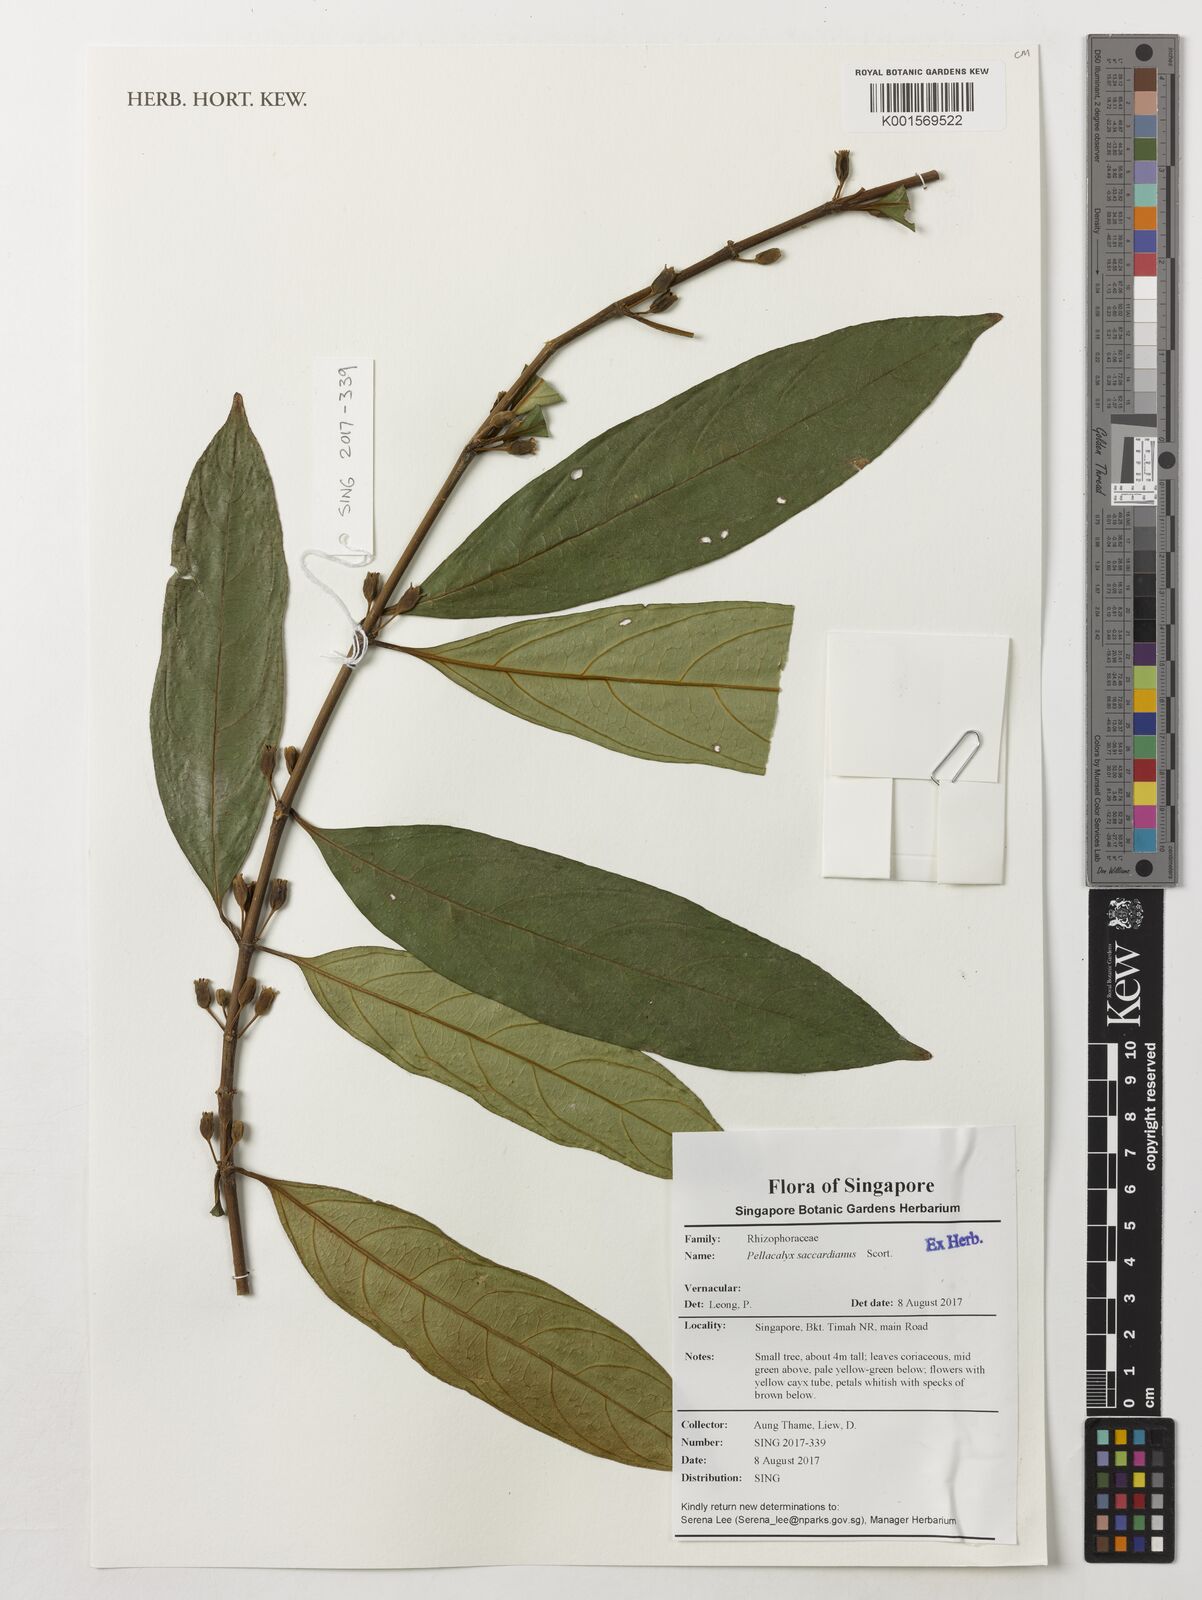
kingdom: Plantae
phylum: Tracheophyta
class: Magnoliopsida
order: Malpighiales
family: Rhizophoraceae
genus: Pellacalyx
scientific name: Pellacalyx saccardianus
